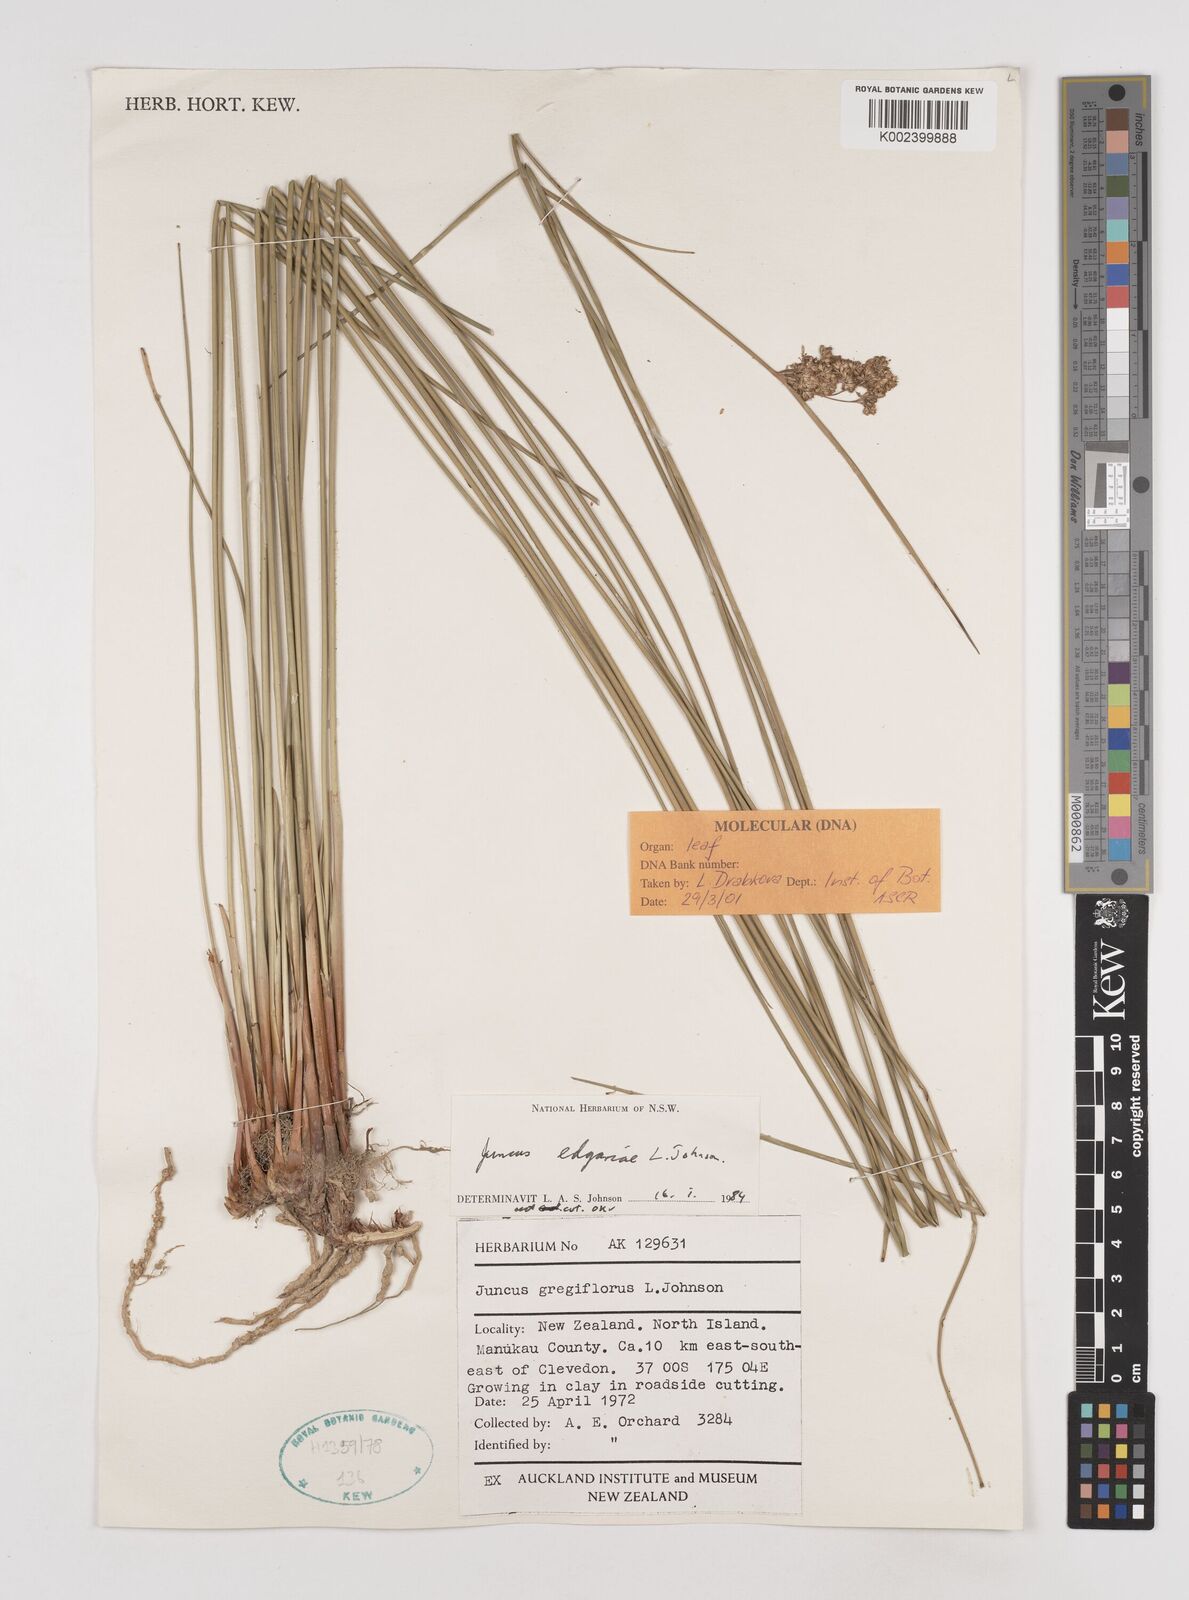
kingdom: Plantae
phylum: Tracheophyta
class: Liliopsida
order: Poales
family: Juncaceae
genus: Juncus
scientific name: Juncus edgariae
